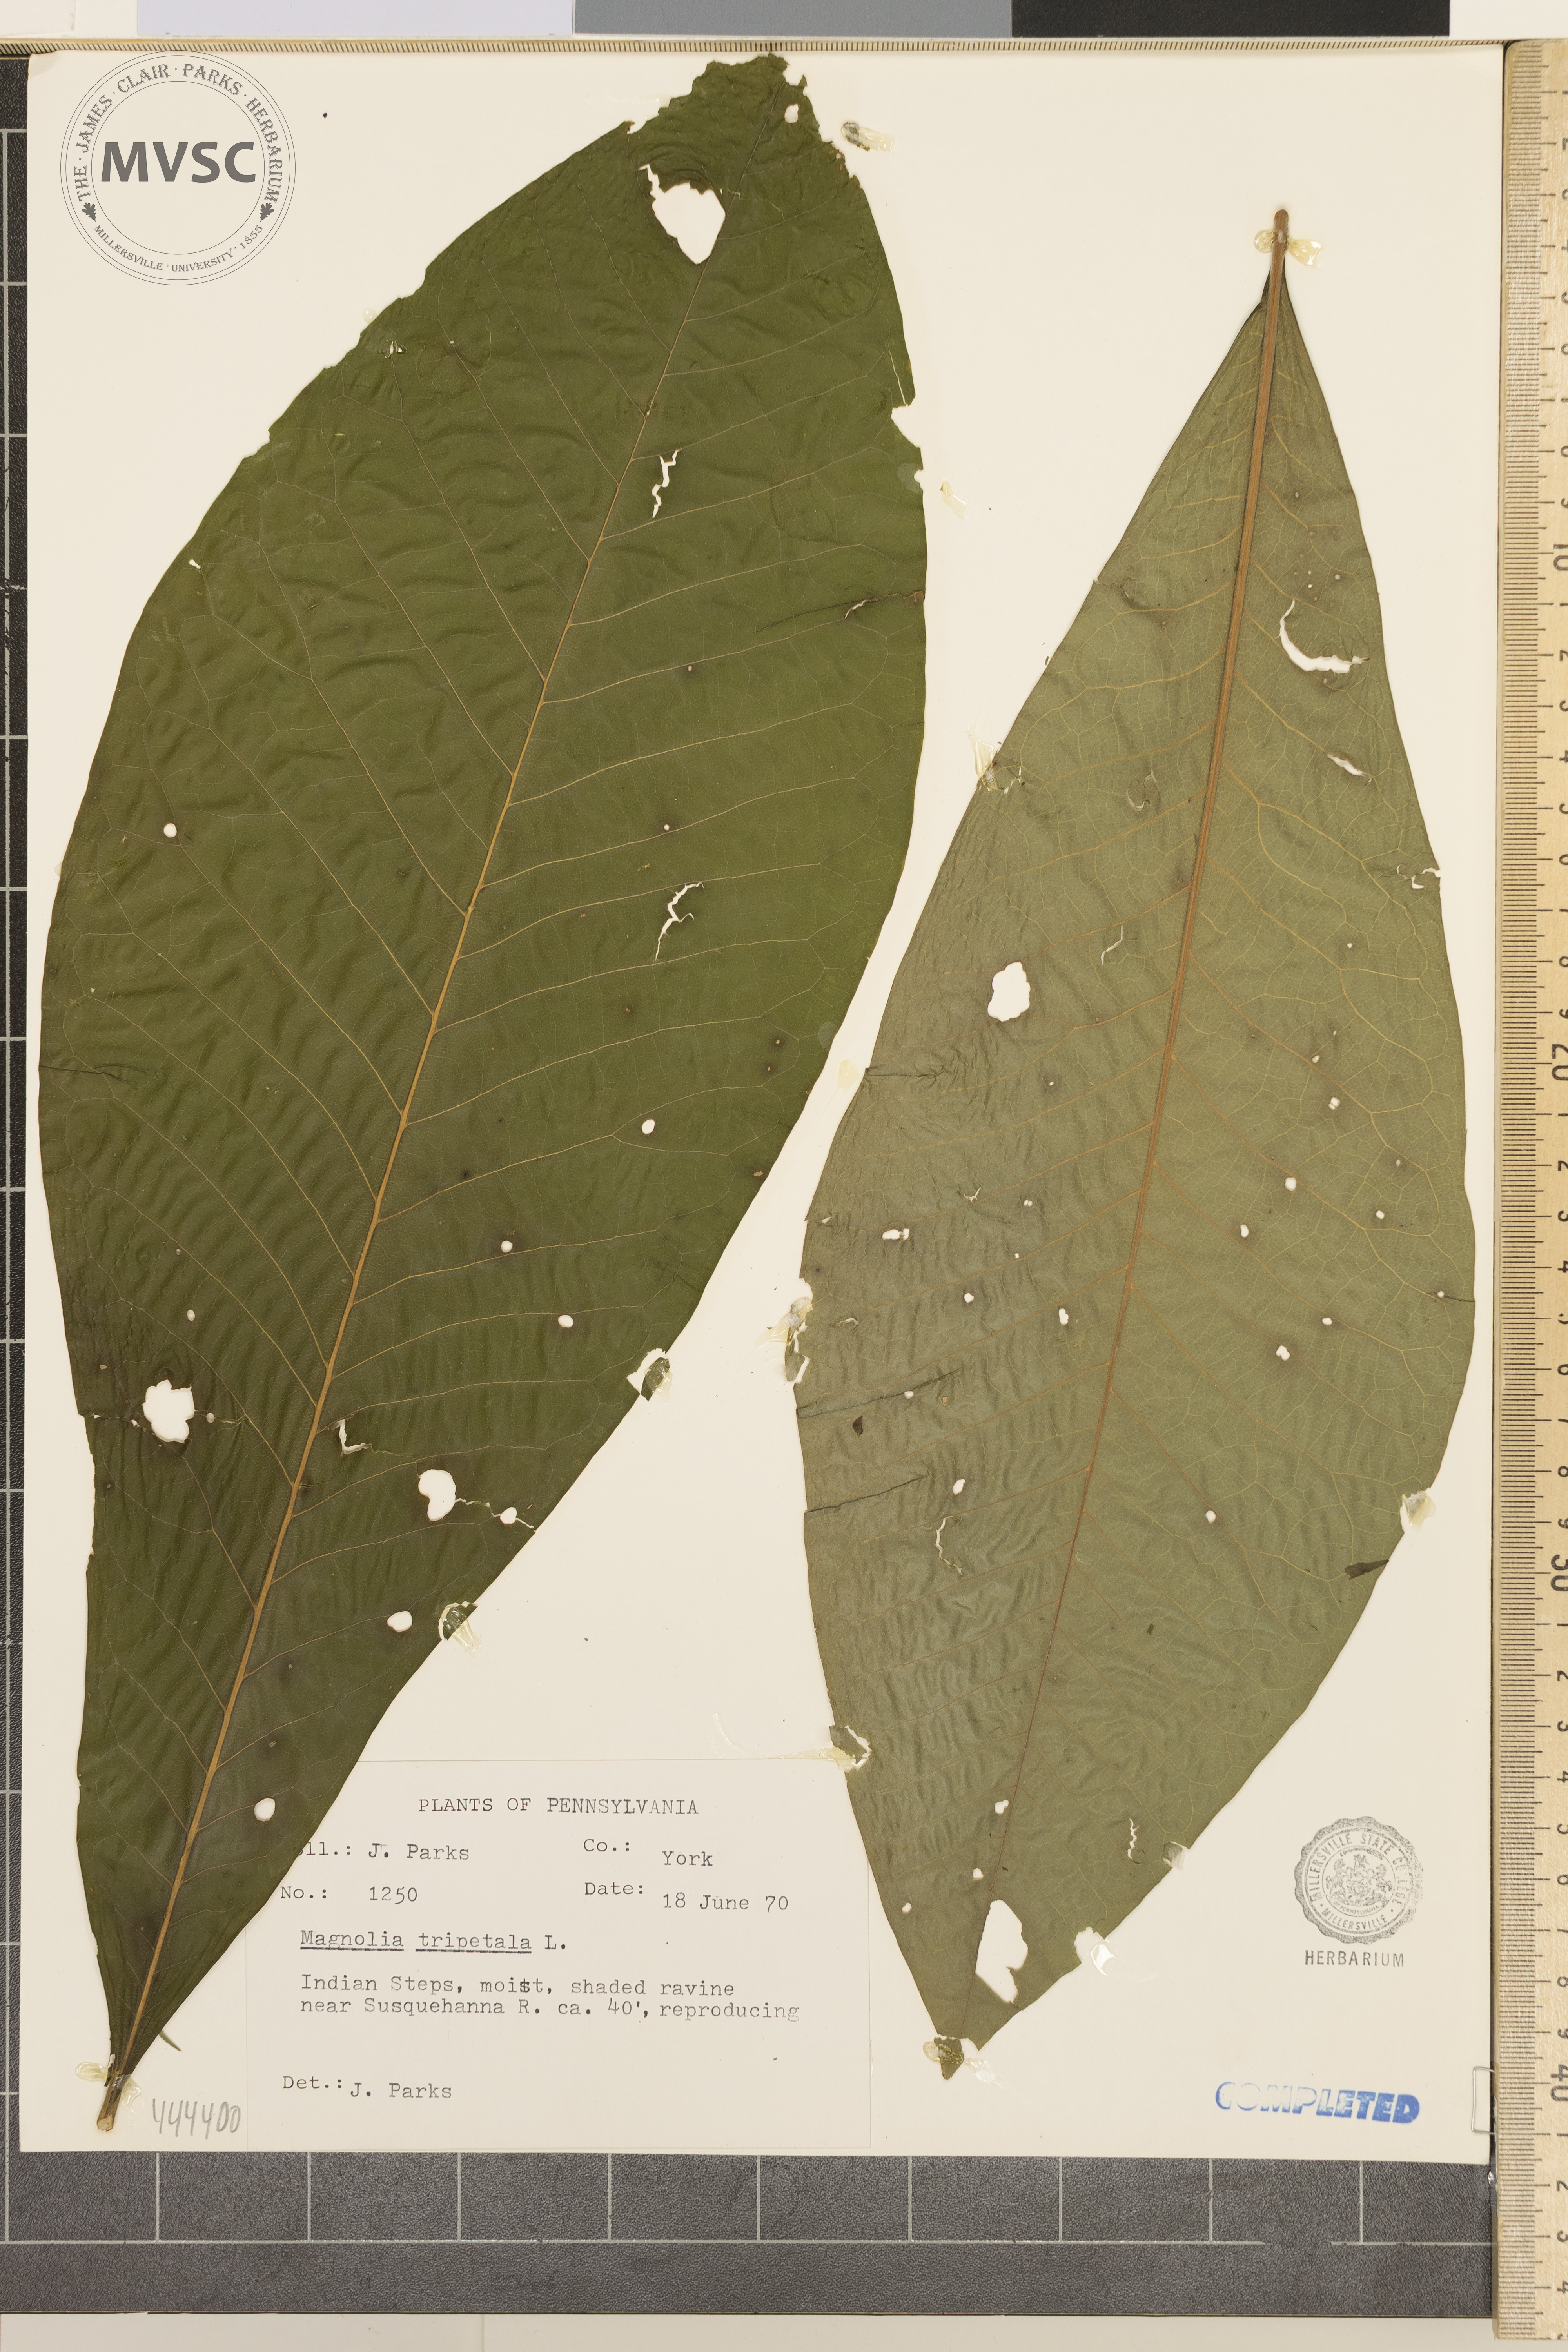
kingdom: Plantae
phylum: Tracheophyta
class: Magnoliopsida
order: Magnoliales
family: Magnoliaceae
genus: Magnolia
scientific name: Magnolia tripetala
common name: umbrella-tree
